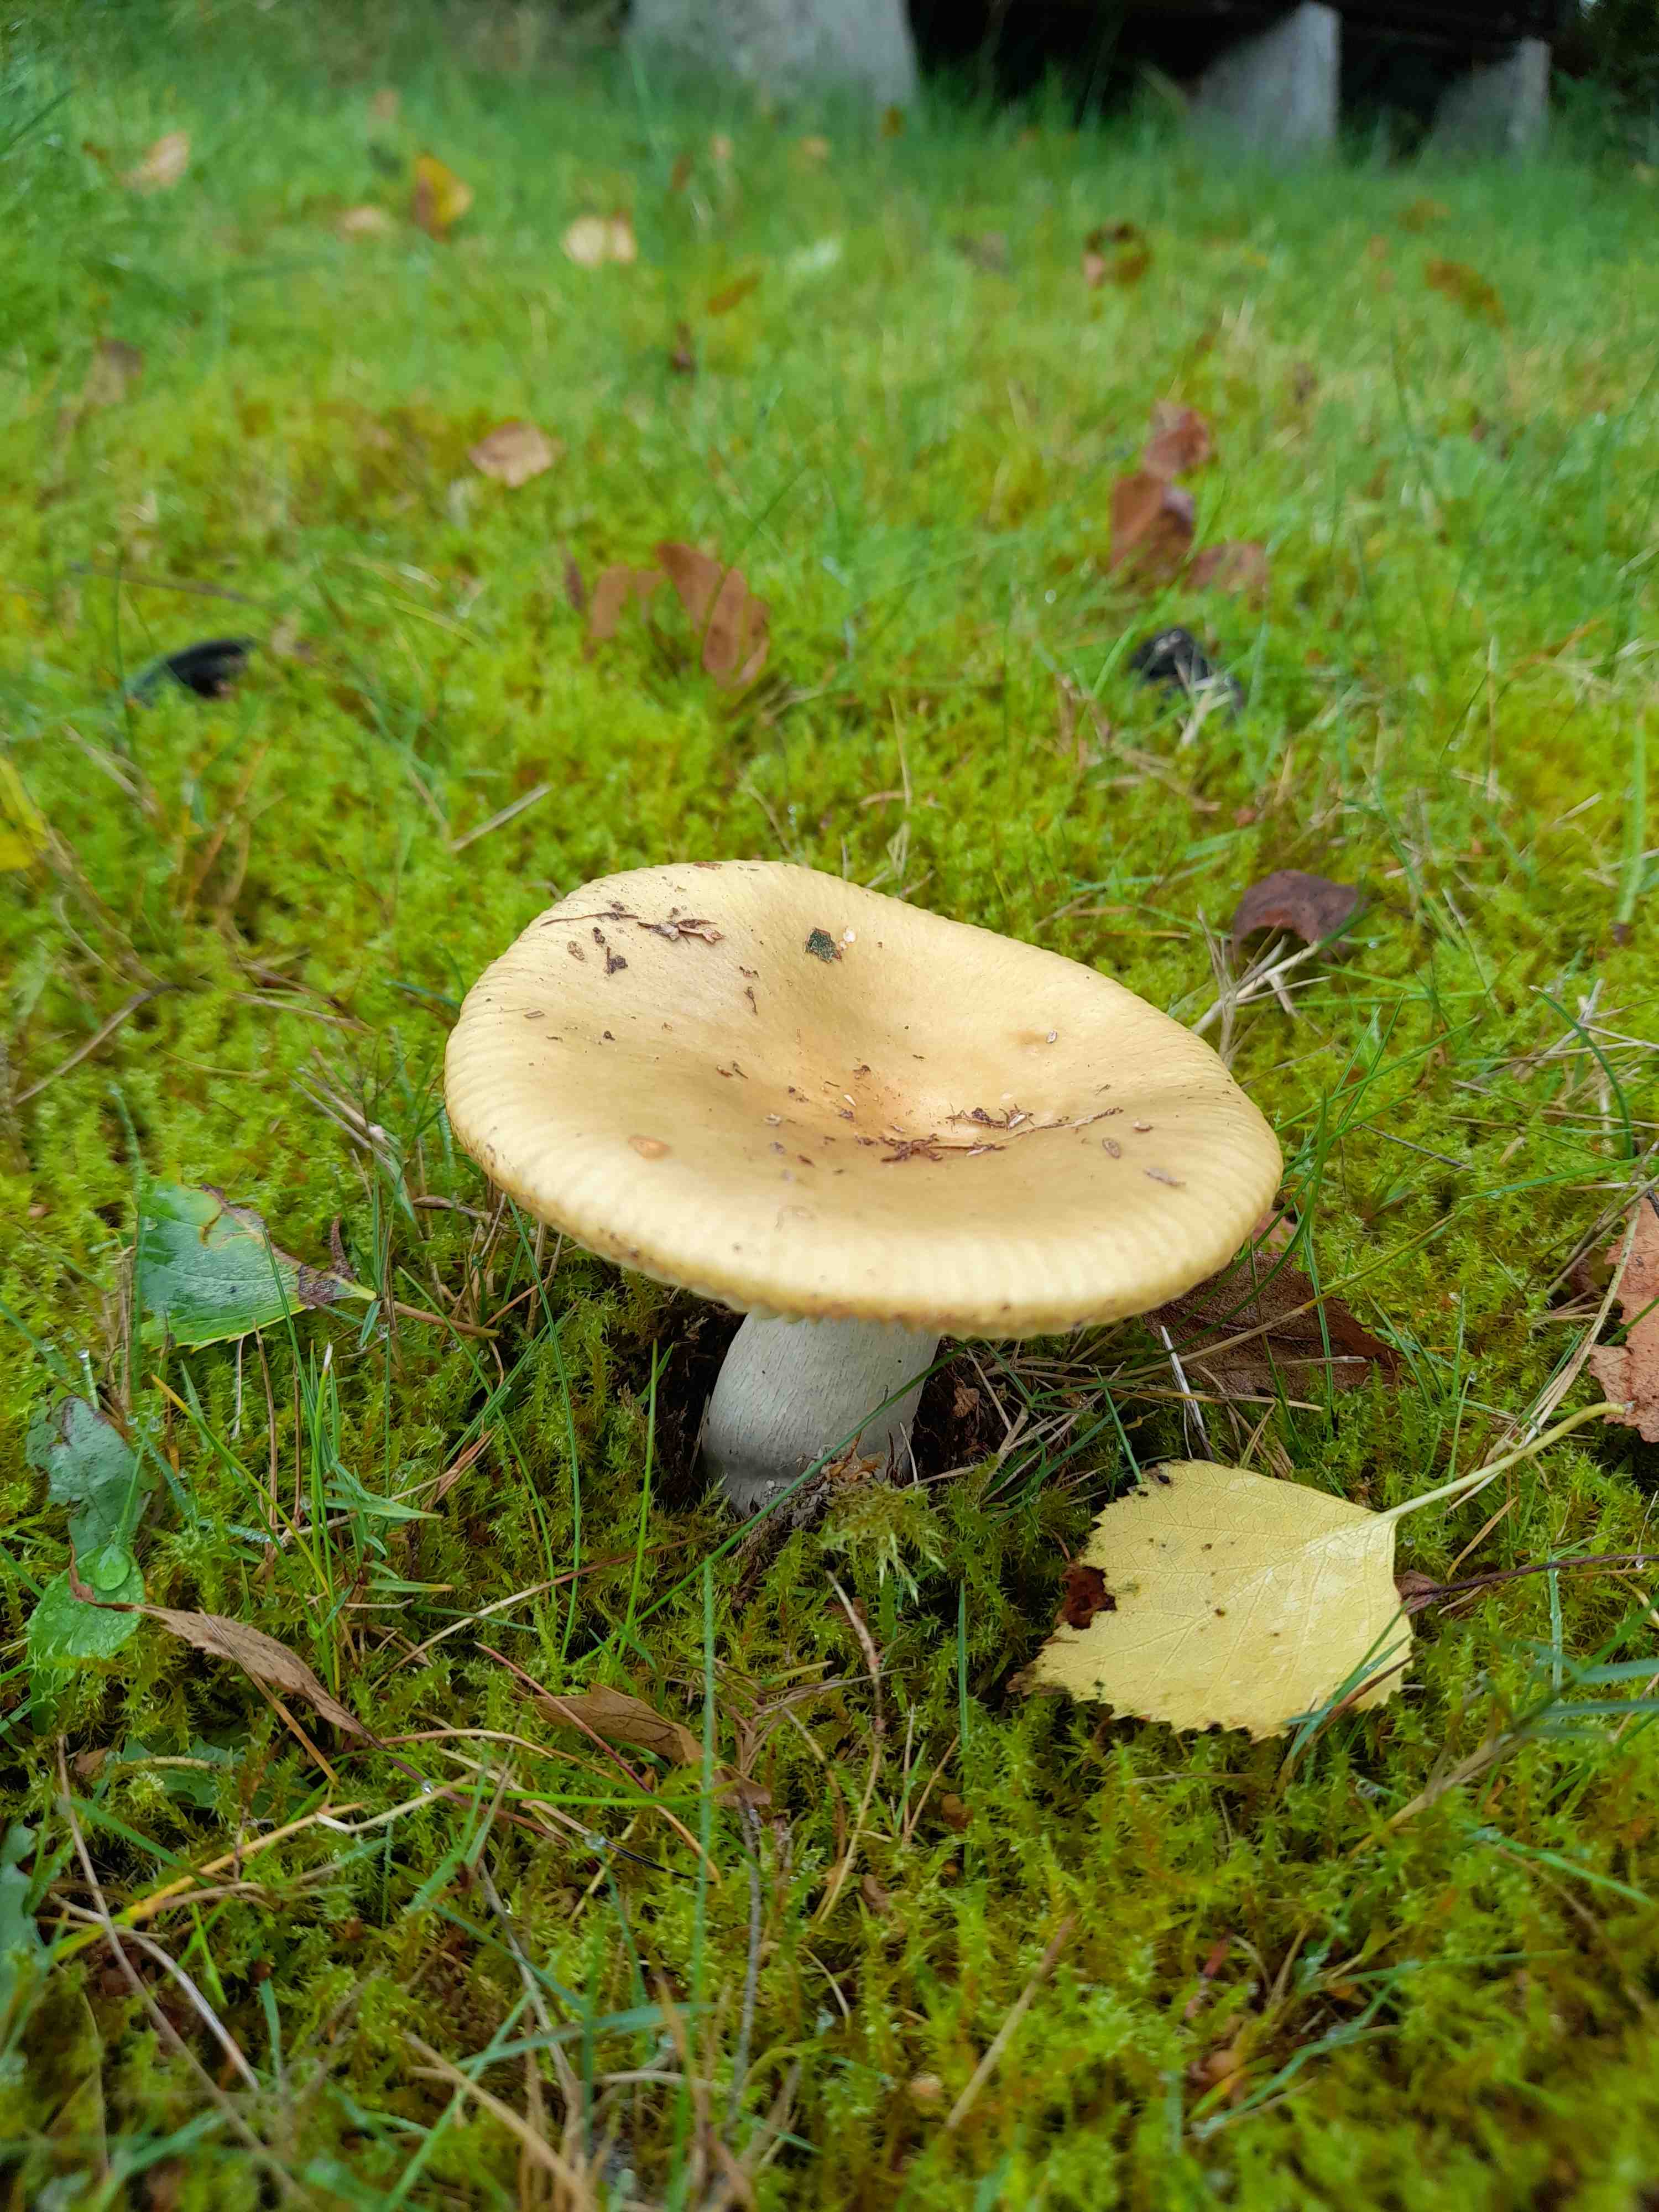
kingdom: Fungi
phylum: Basidiomycota
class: Agaricomycetes
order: Russulales
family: Russulaceae
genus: Russula
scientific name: Russula ochroleuca
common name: okkergul skørhat
